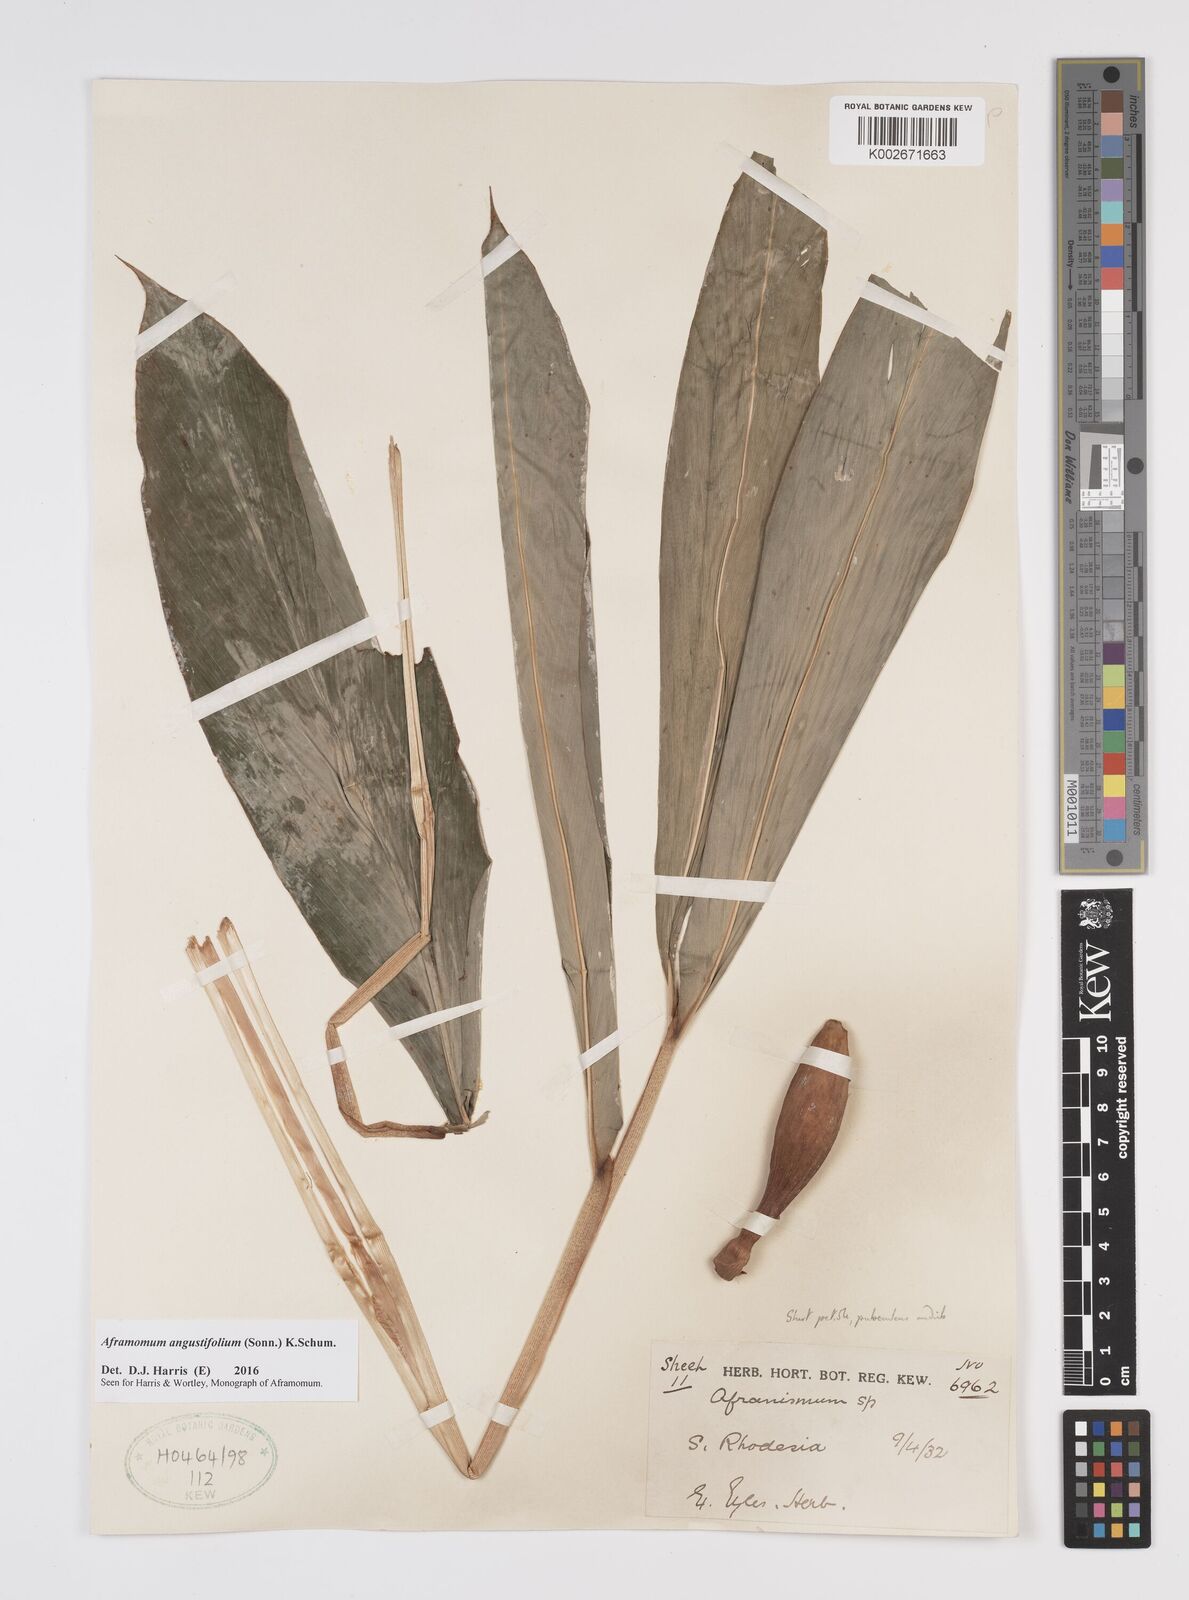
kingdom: Plantae
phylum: Tracheophyta
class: Liliopsida
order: Zingiberales
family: Zingiberaceae
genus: Aframomum
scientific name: Aframomum
